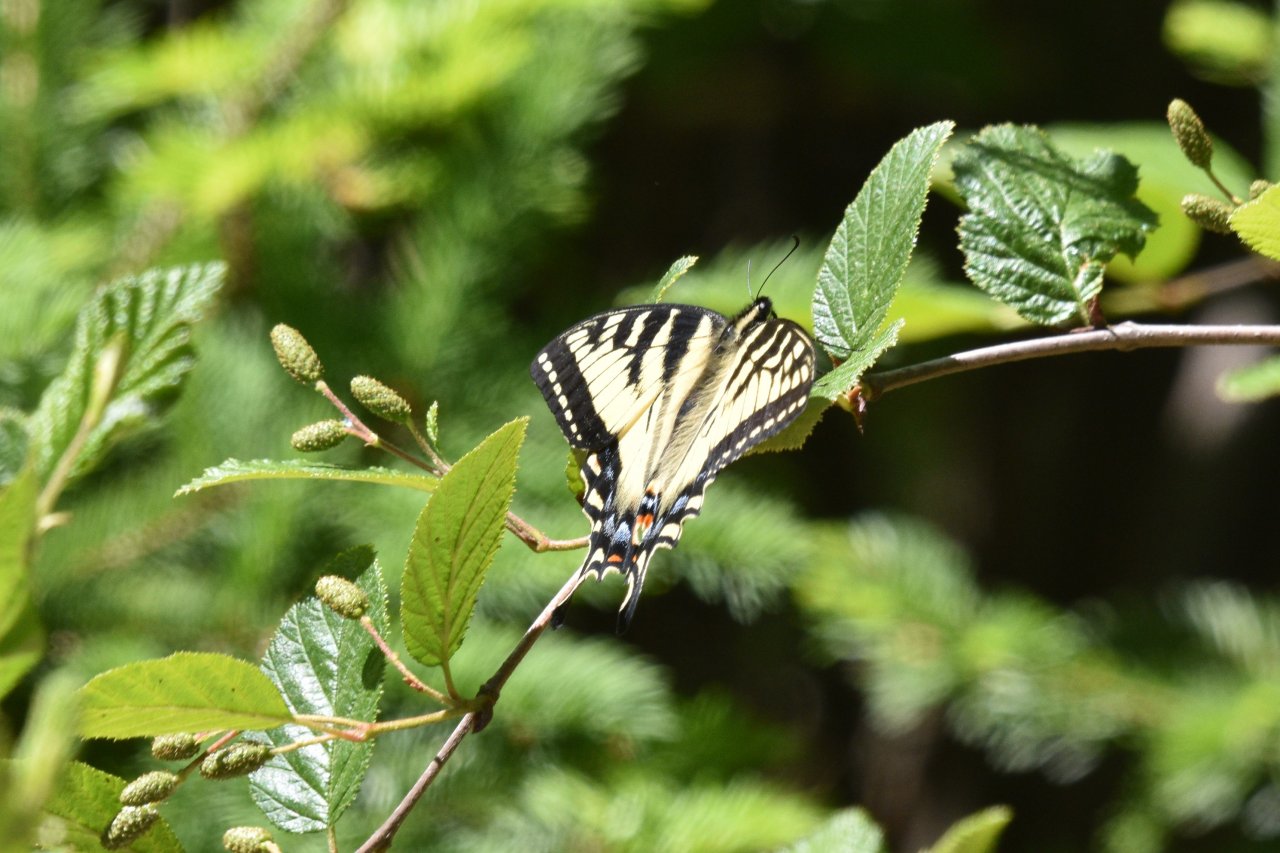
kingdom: Animalia
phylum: Arthropoda
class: Insecta
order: Lepidoptera
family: Papilionidae
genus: Pterourus
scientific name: Pterourus canadensis
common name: Canadian Tiger Swallowtail
